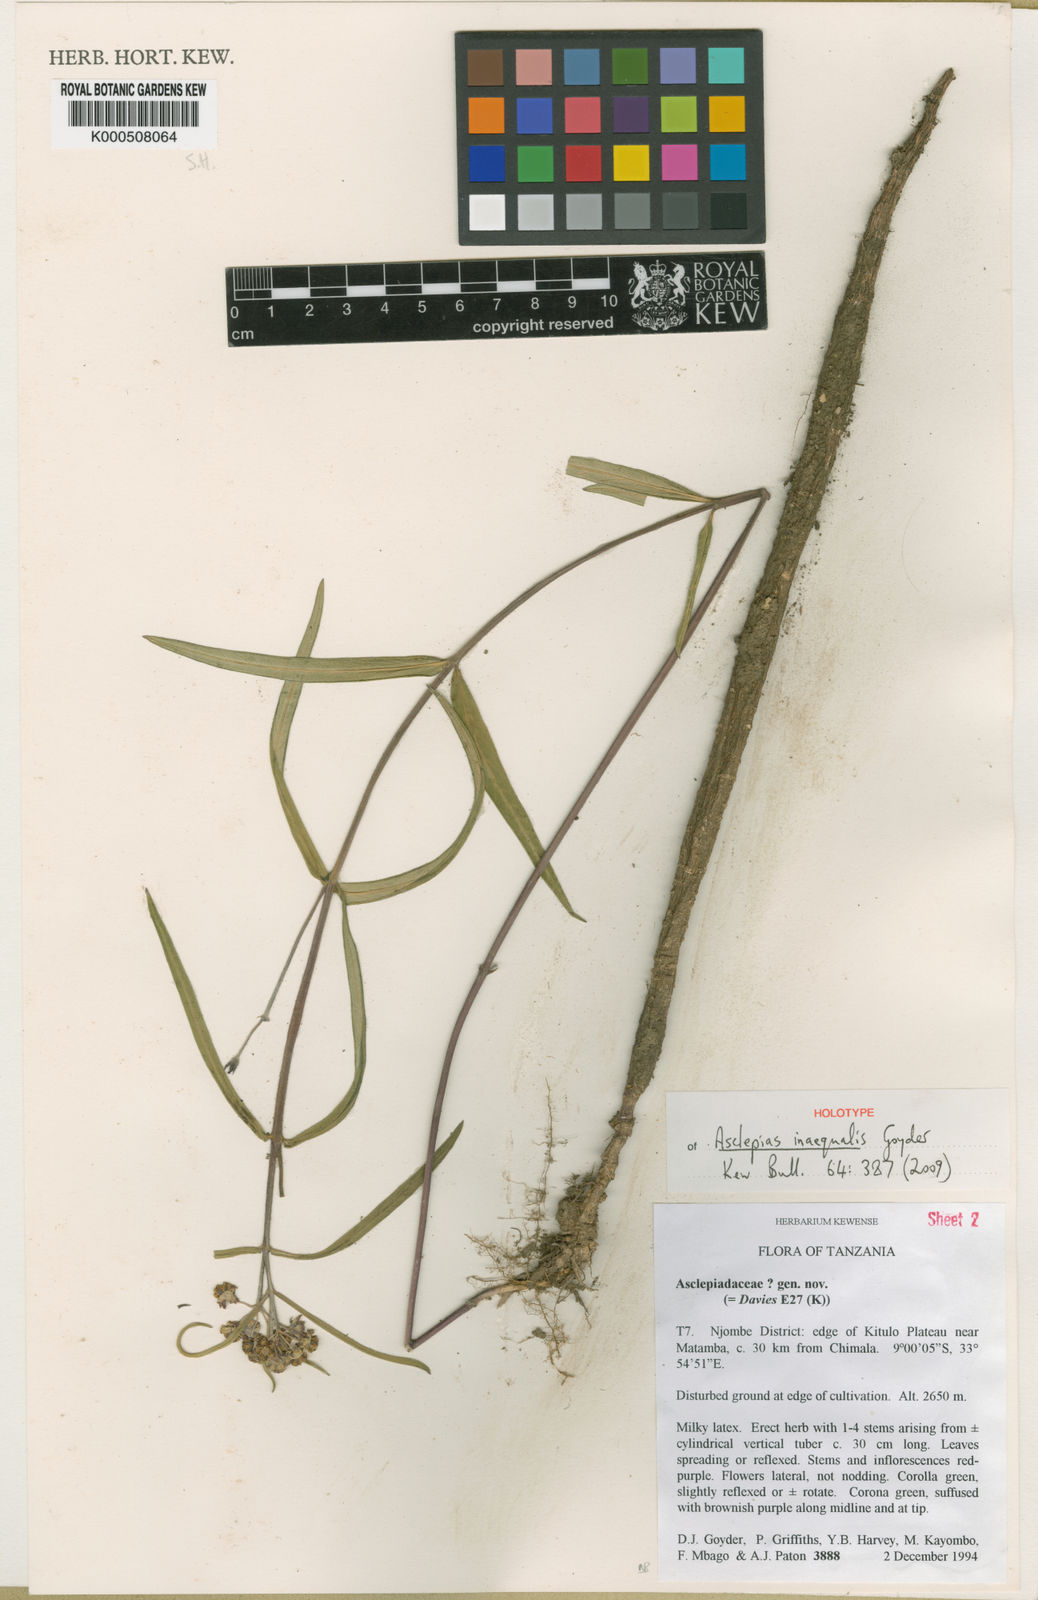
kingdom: Plantae
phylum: Tracheophyta
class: Magnoliopsida
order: Gentianales
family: Apocynaceae
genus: Asclepias
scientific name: Asclepias inaequalis
